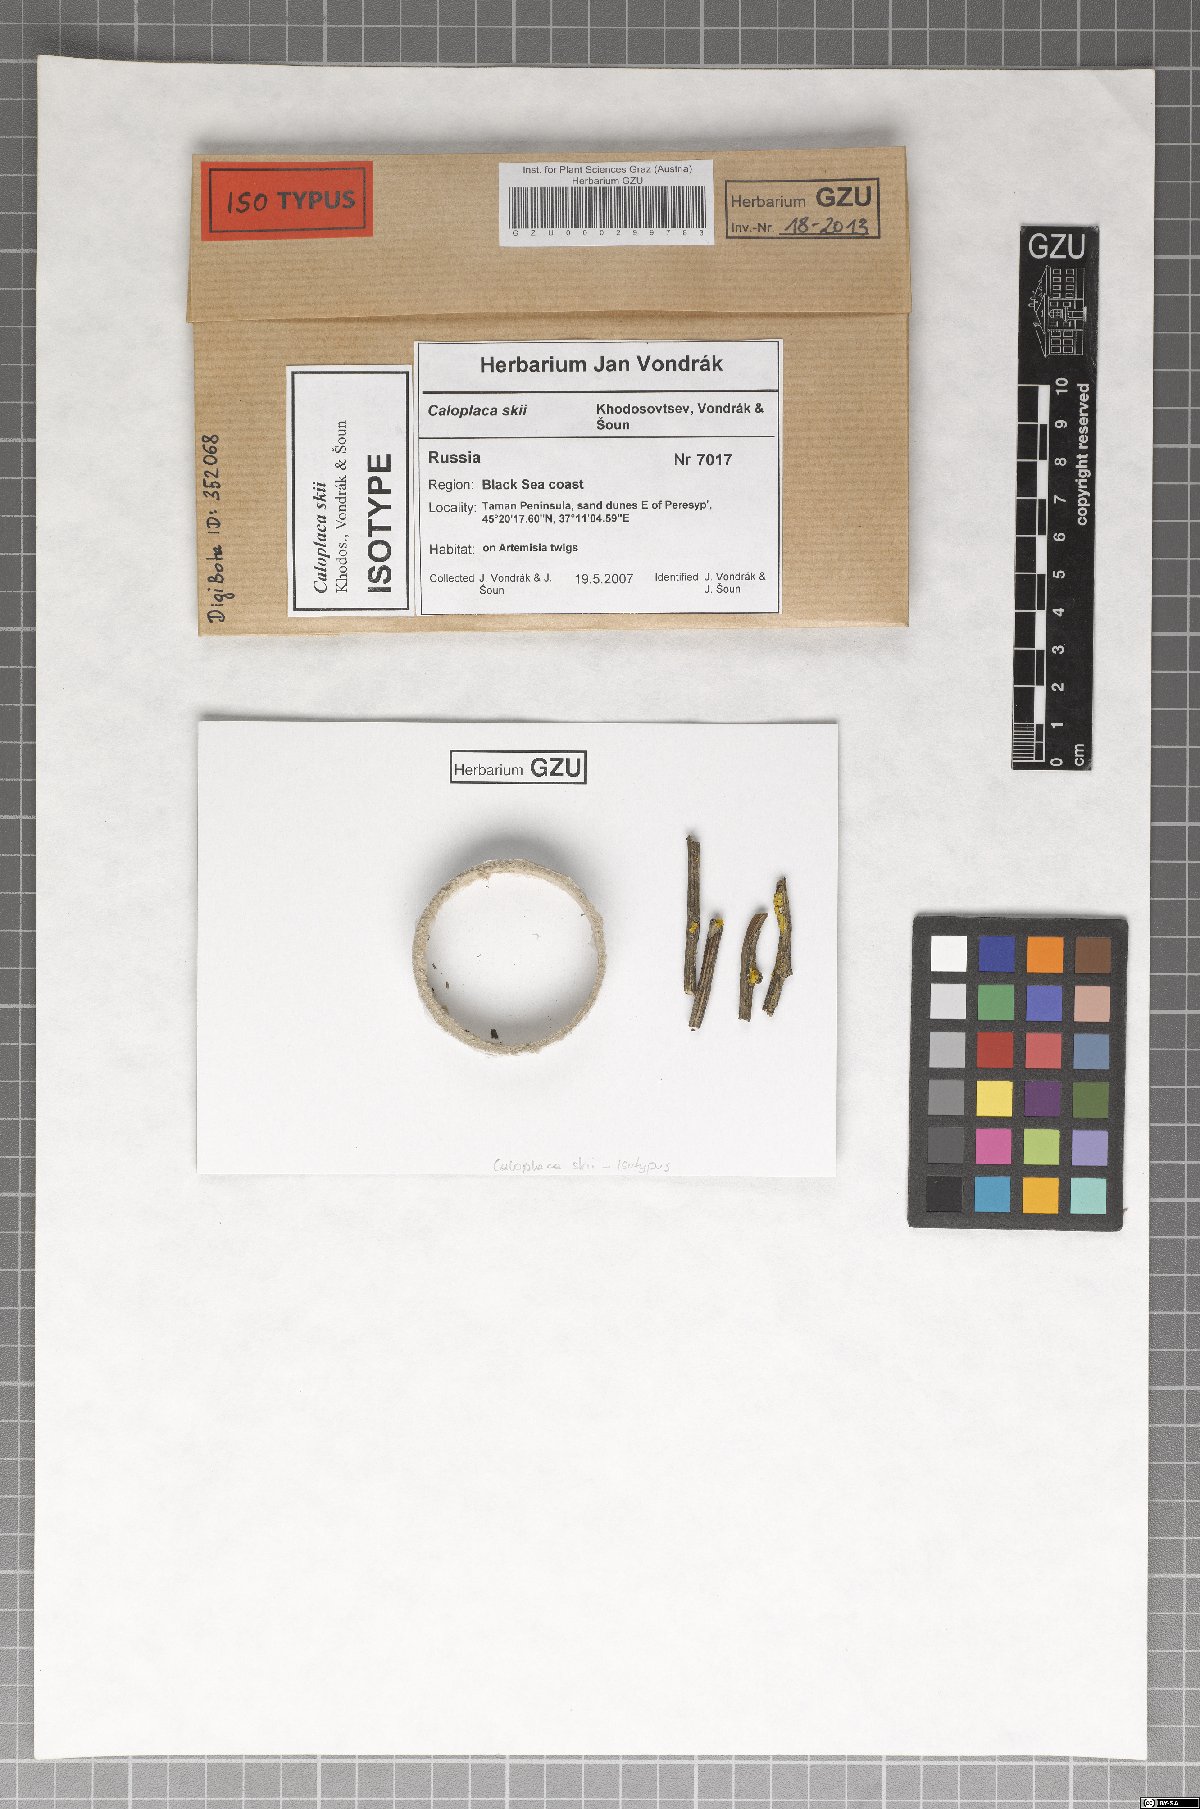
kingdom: Fungi
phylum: Ascomycota
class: Lecanoromycetes
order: Teloschistales
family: Teloschistaceae
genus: Fominiella
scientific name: Fominiella skii
